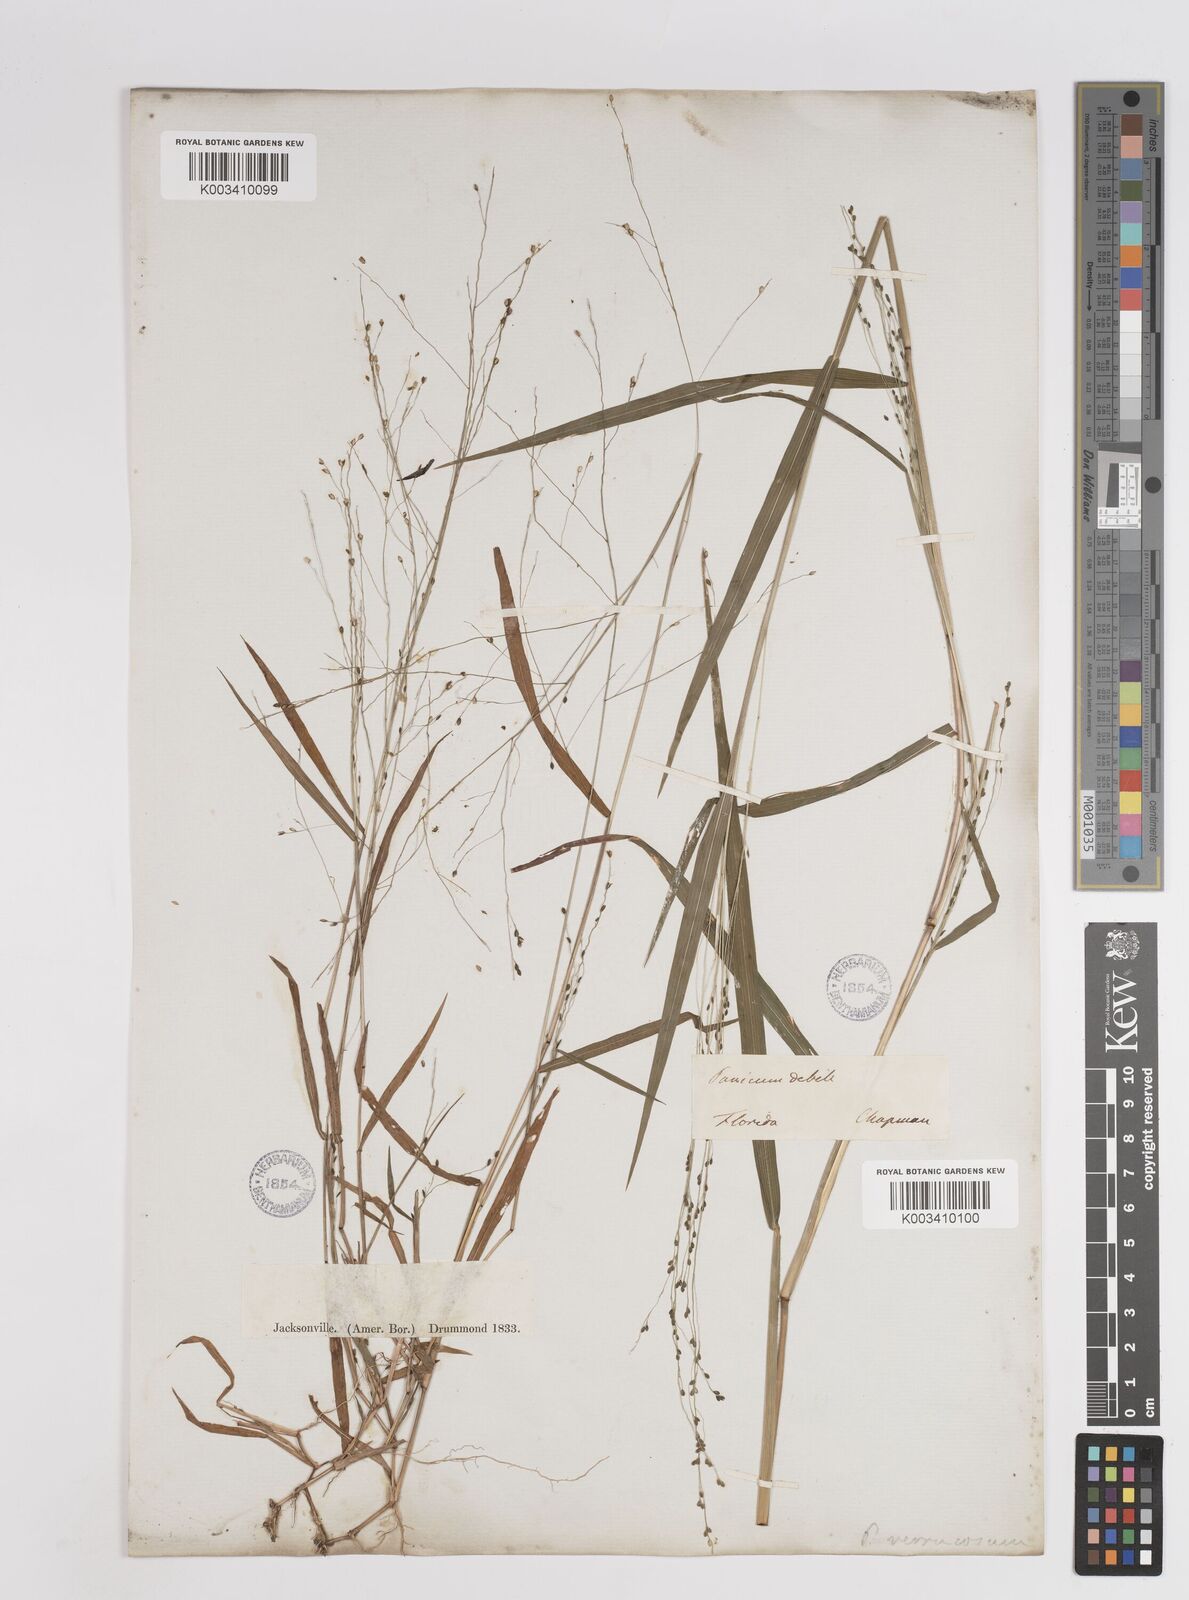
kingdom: Plantae
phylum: Tracheophyta
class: Liliopsida
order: Poales
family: Poaceae
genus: Kellochloa
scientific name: Kellochloa verrucosa
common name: Warty panic grass
